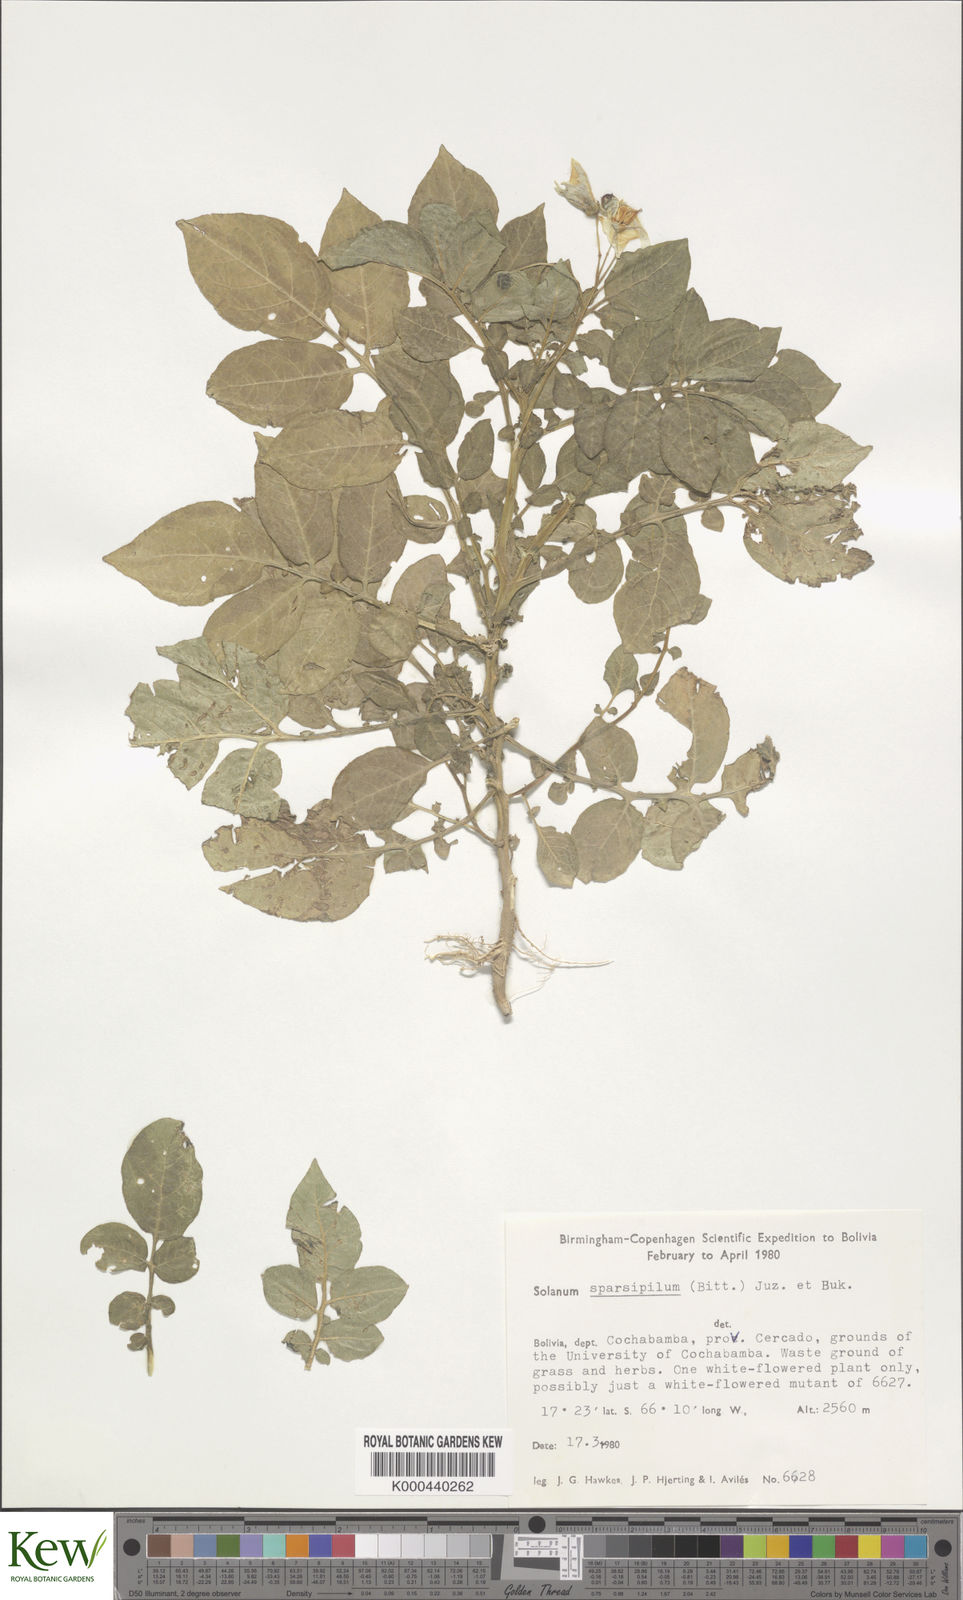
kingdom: Plantae
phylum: Tracheophyta
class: Magnoliopsida
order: Solanales
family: Solanaceae
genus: Solanum
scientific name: Solanum brevicaule
